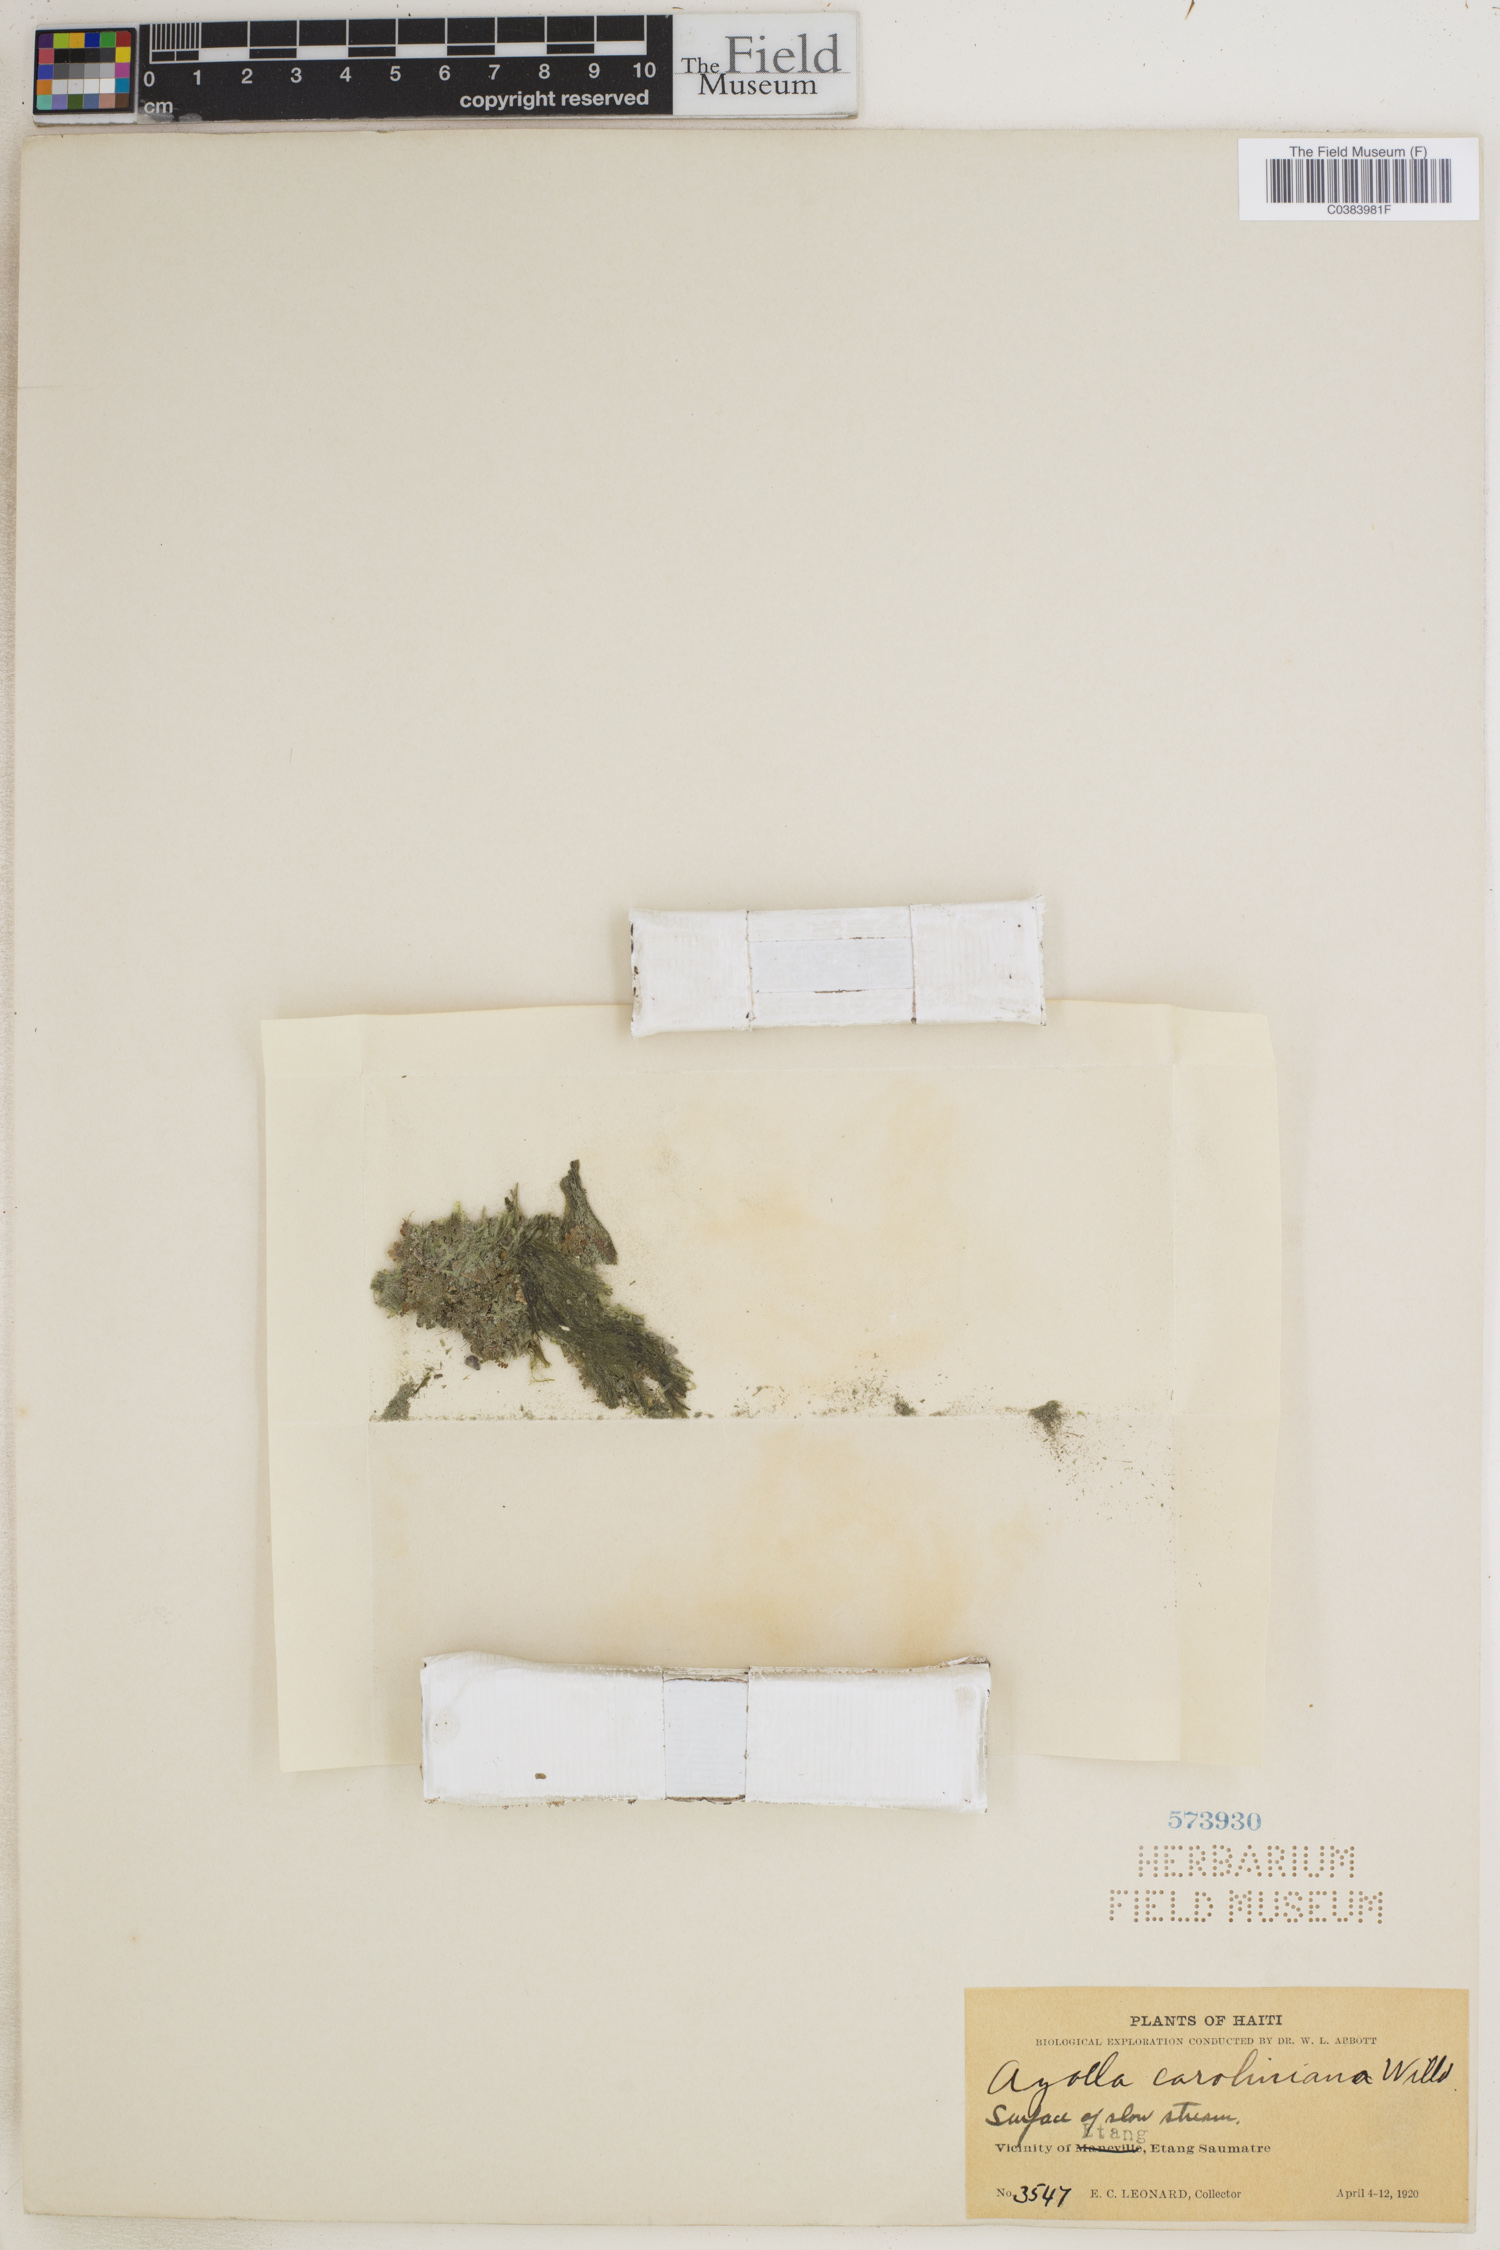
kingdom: Plantae
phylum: Tracheophyta
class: Polypodiopsida
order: Salviniales
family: Salviniaceae
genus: Azolla
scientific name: Azolla caroliniana
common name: Carolina mosquitofern
